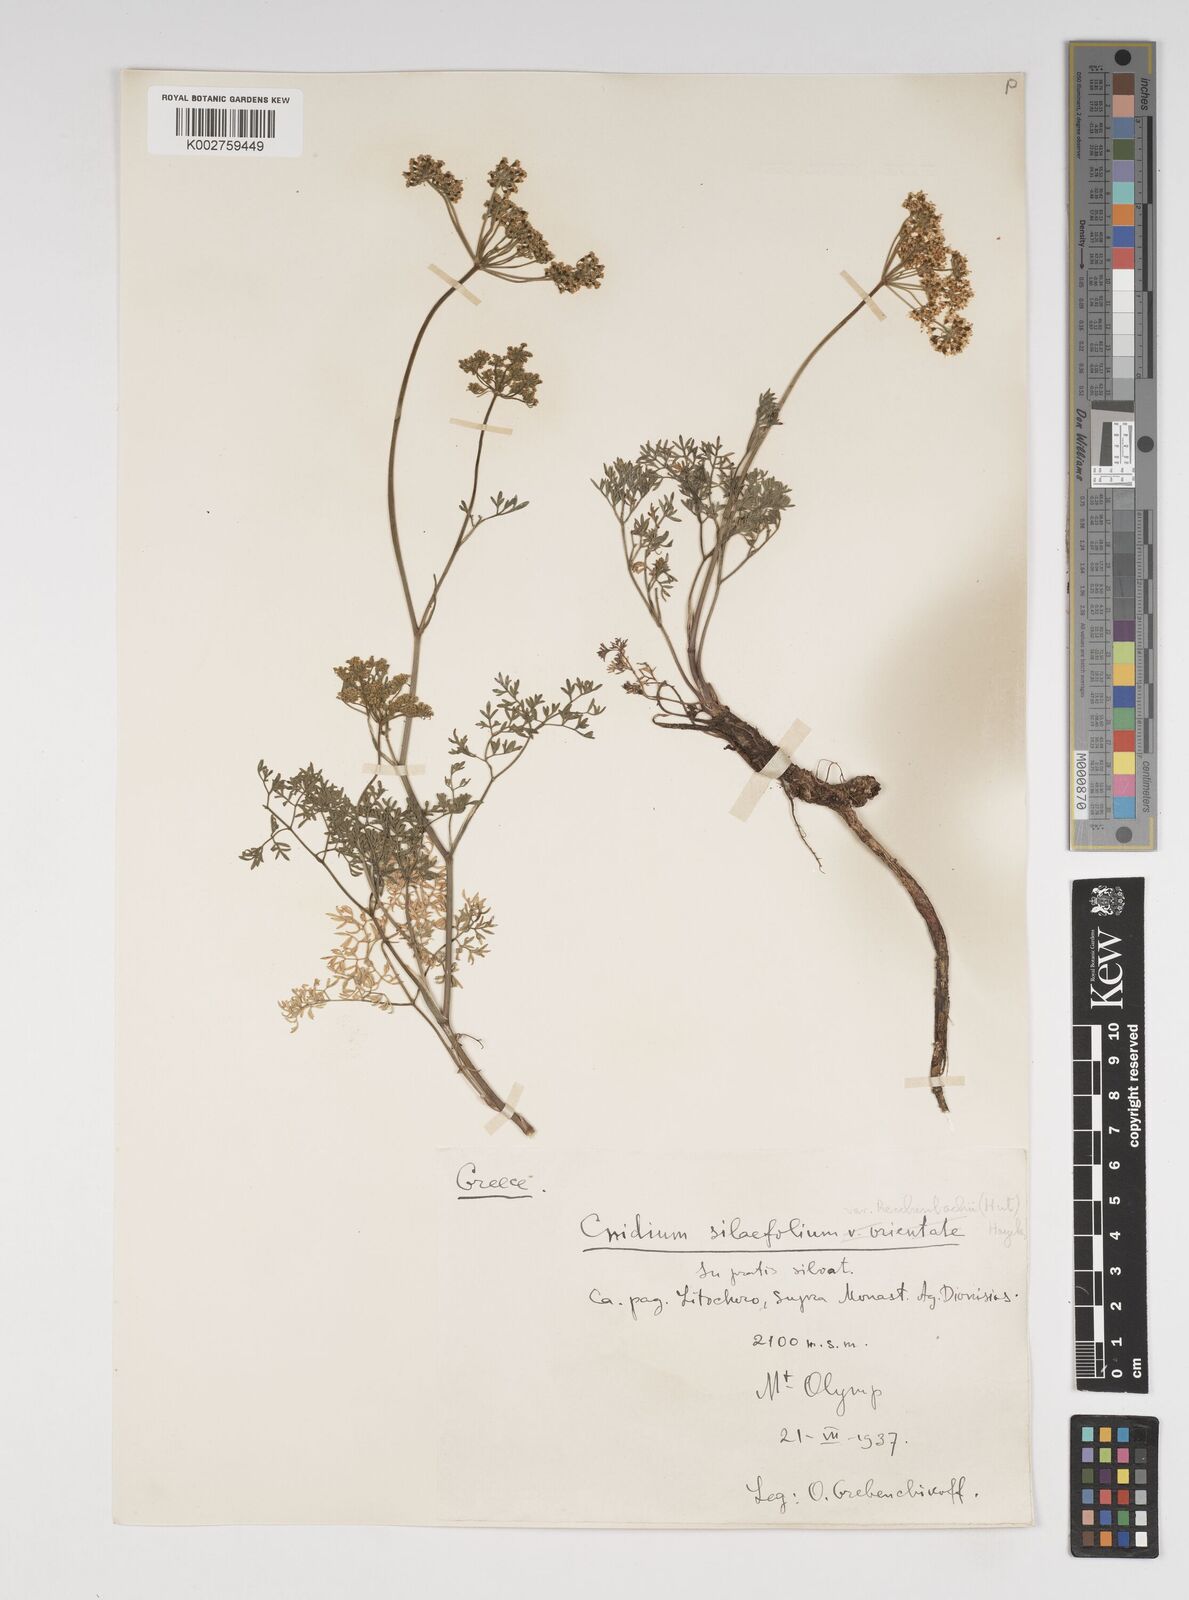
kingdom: Plantae
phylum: Tracheophyta
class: Magnoliopsida
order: Apiales
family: Apiaceae
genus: Selinum
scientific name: Selinum
